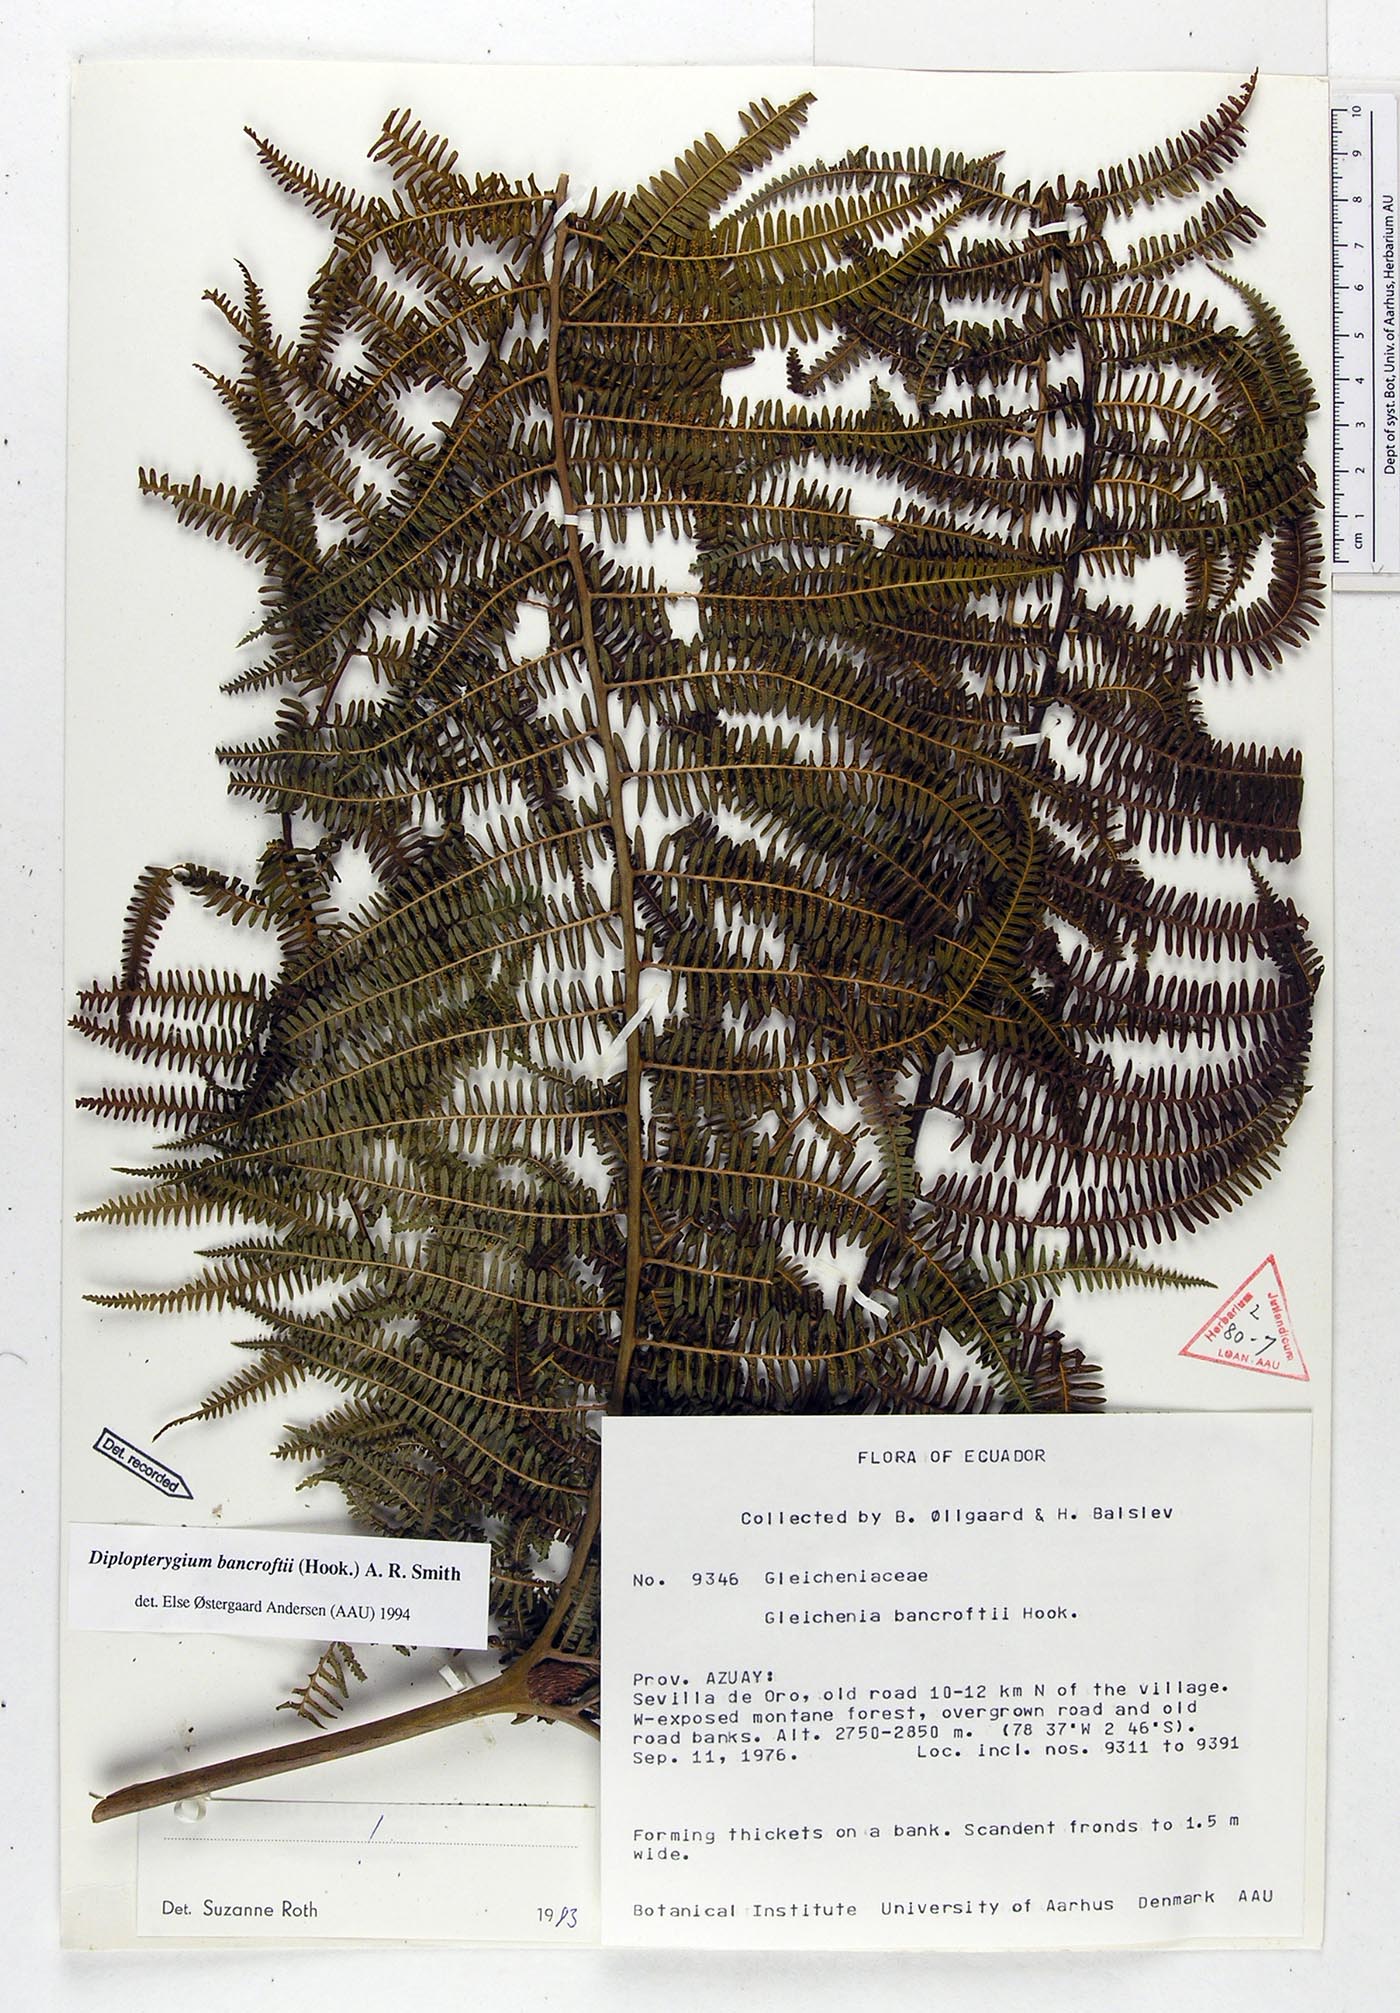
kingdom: Plantae
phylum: Tracheophyta
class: Polypodiopsida
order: Gleicheniales
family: Gleicheniaceae
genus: Diplopterygium
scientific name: Diplopterygium bancroftii
